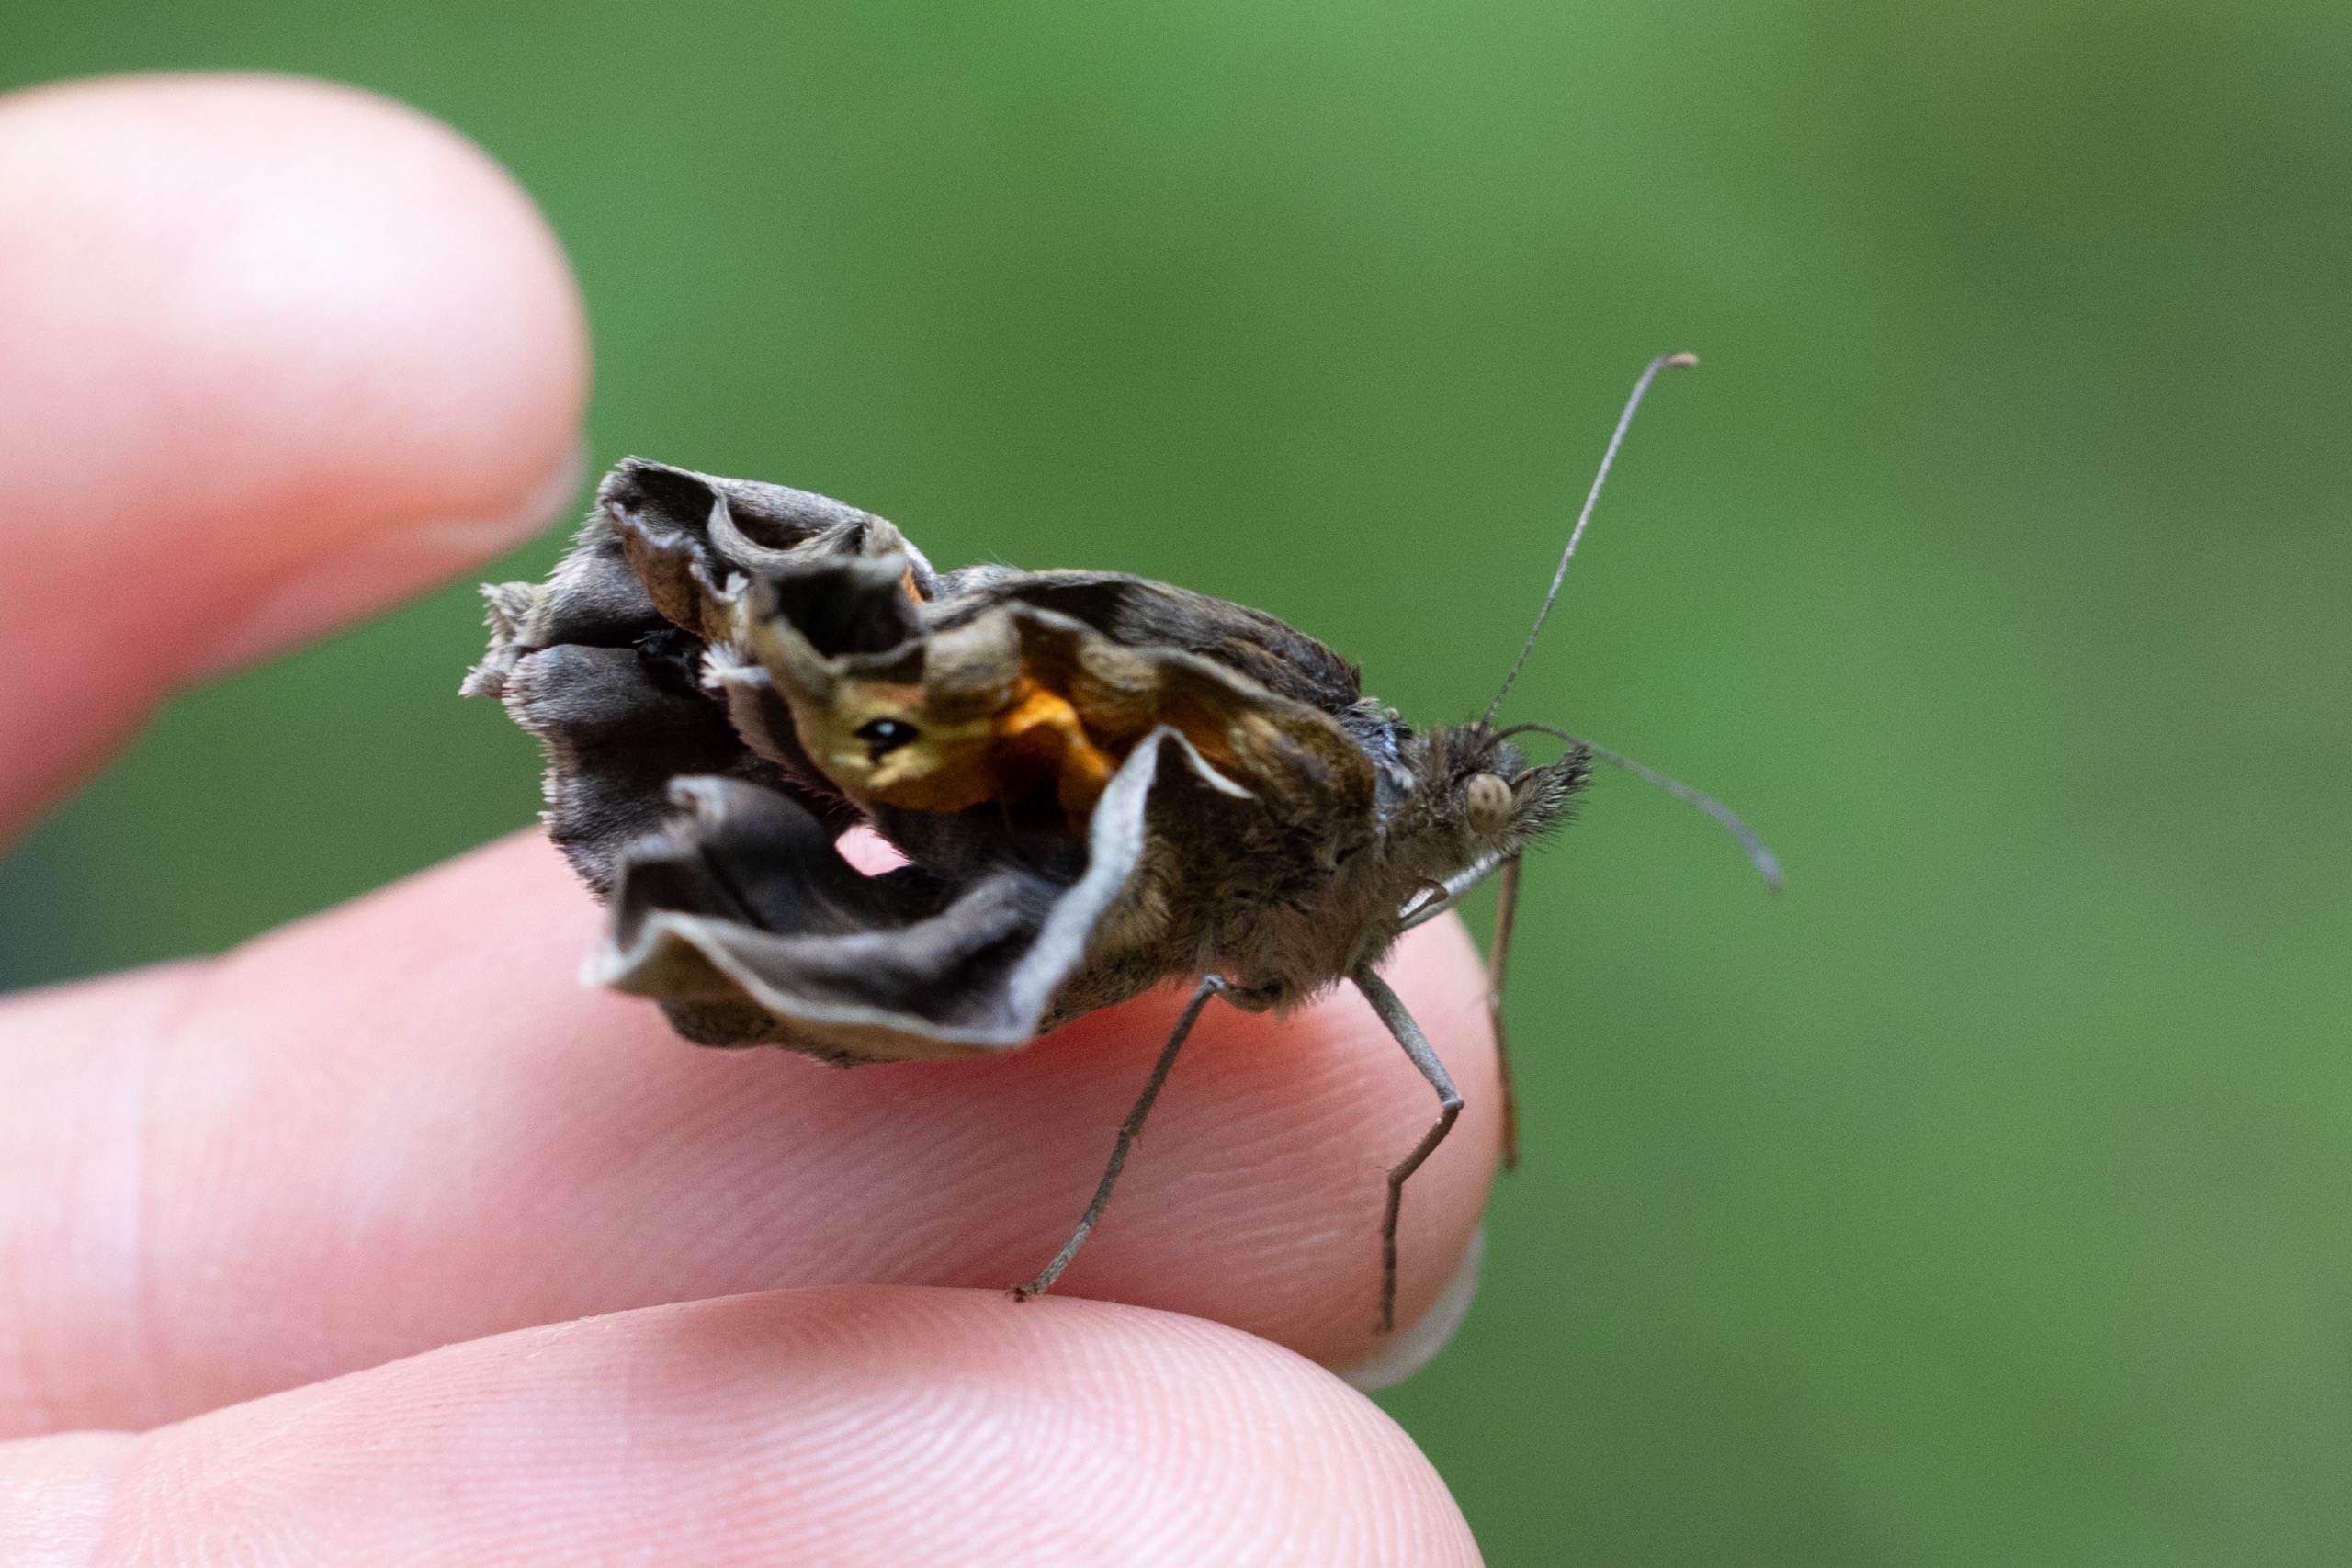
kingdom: Animalia
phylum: Arthropoda
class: Insecta
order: Lepidoptera
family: Nymphalidae
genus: Maniola
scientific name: Maniola jurtina
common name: Græsrandøje
